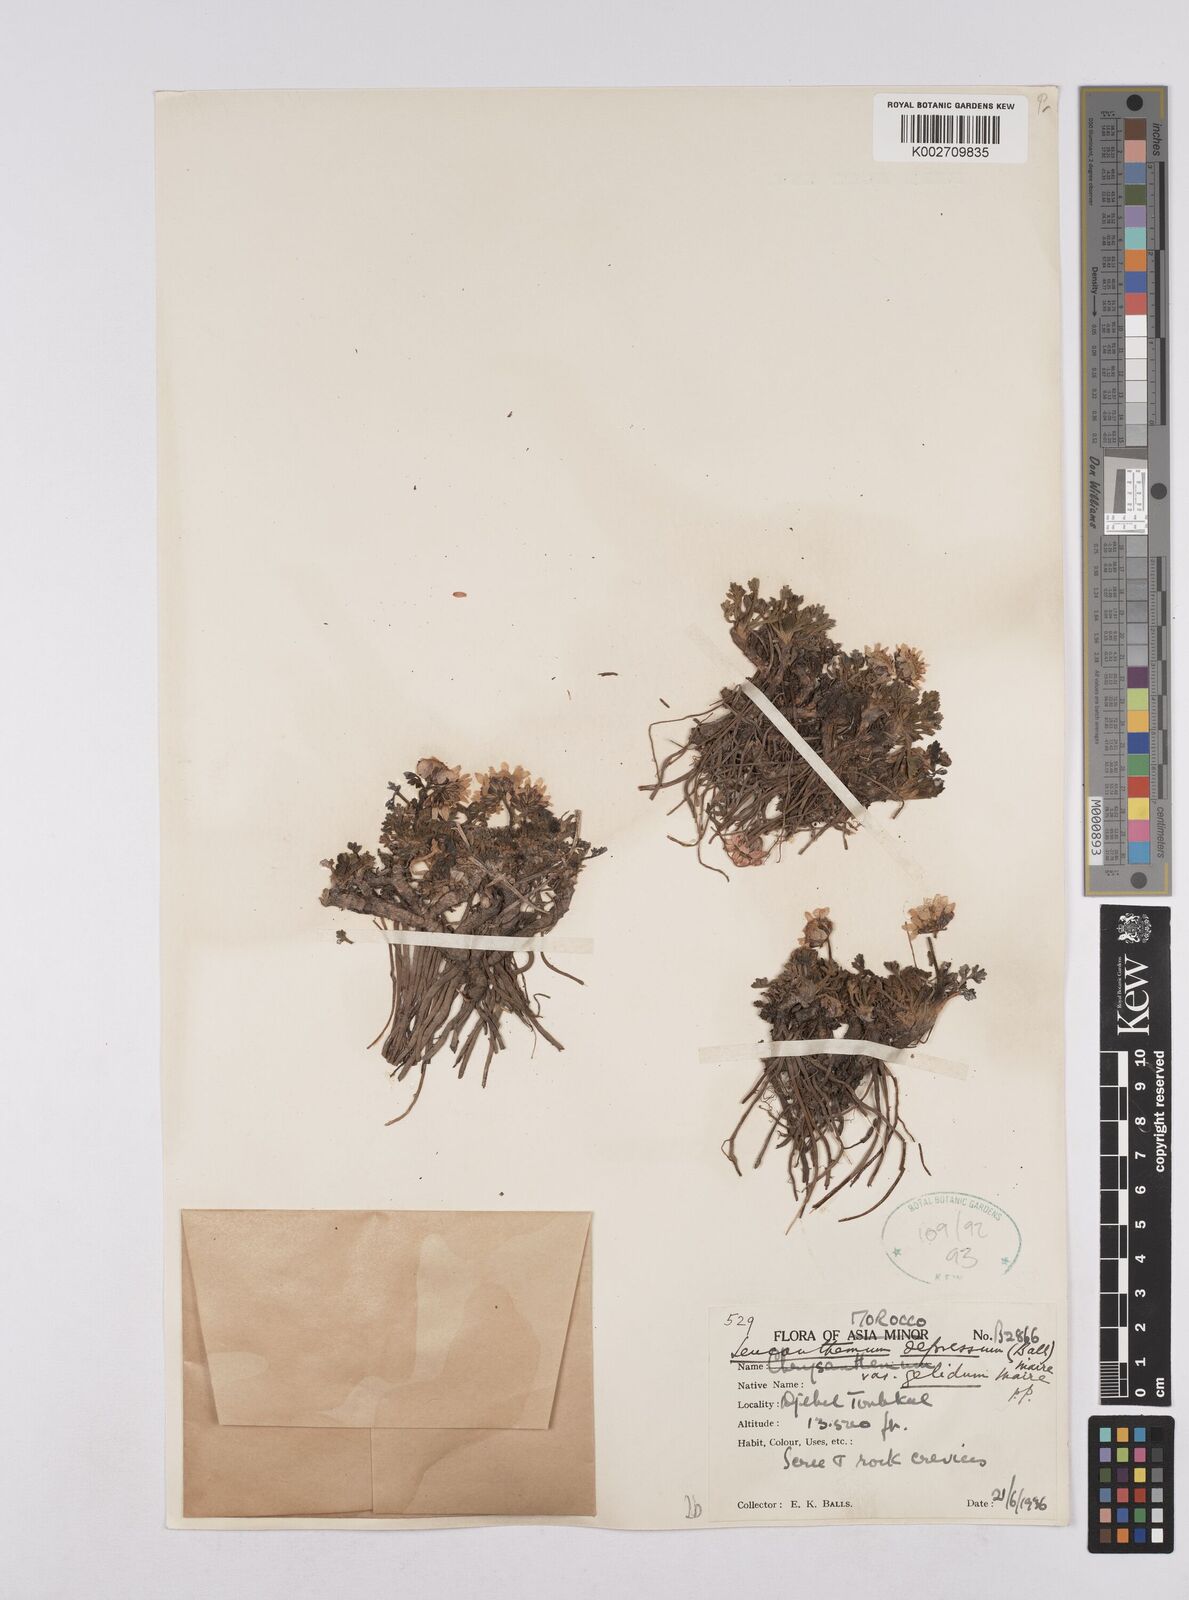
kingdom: Plantae
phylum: Tracheophyta
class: Magnoliopsida
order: Asterales
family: Asteraceae
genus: Rhodanthemum
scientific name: Rhodanthemum depressum
